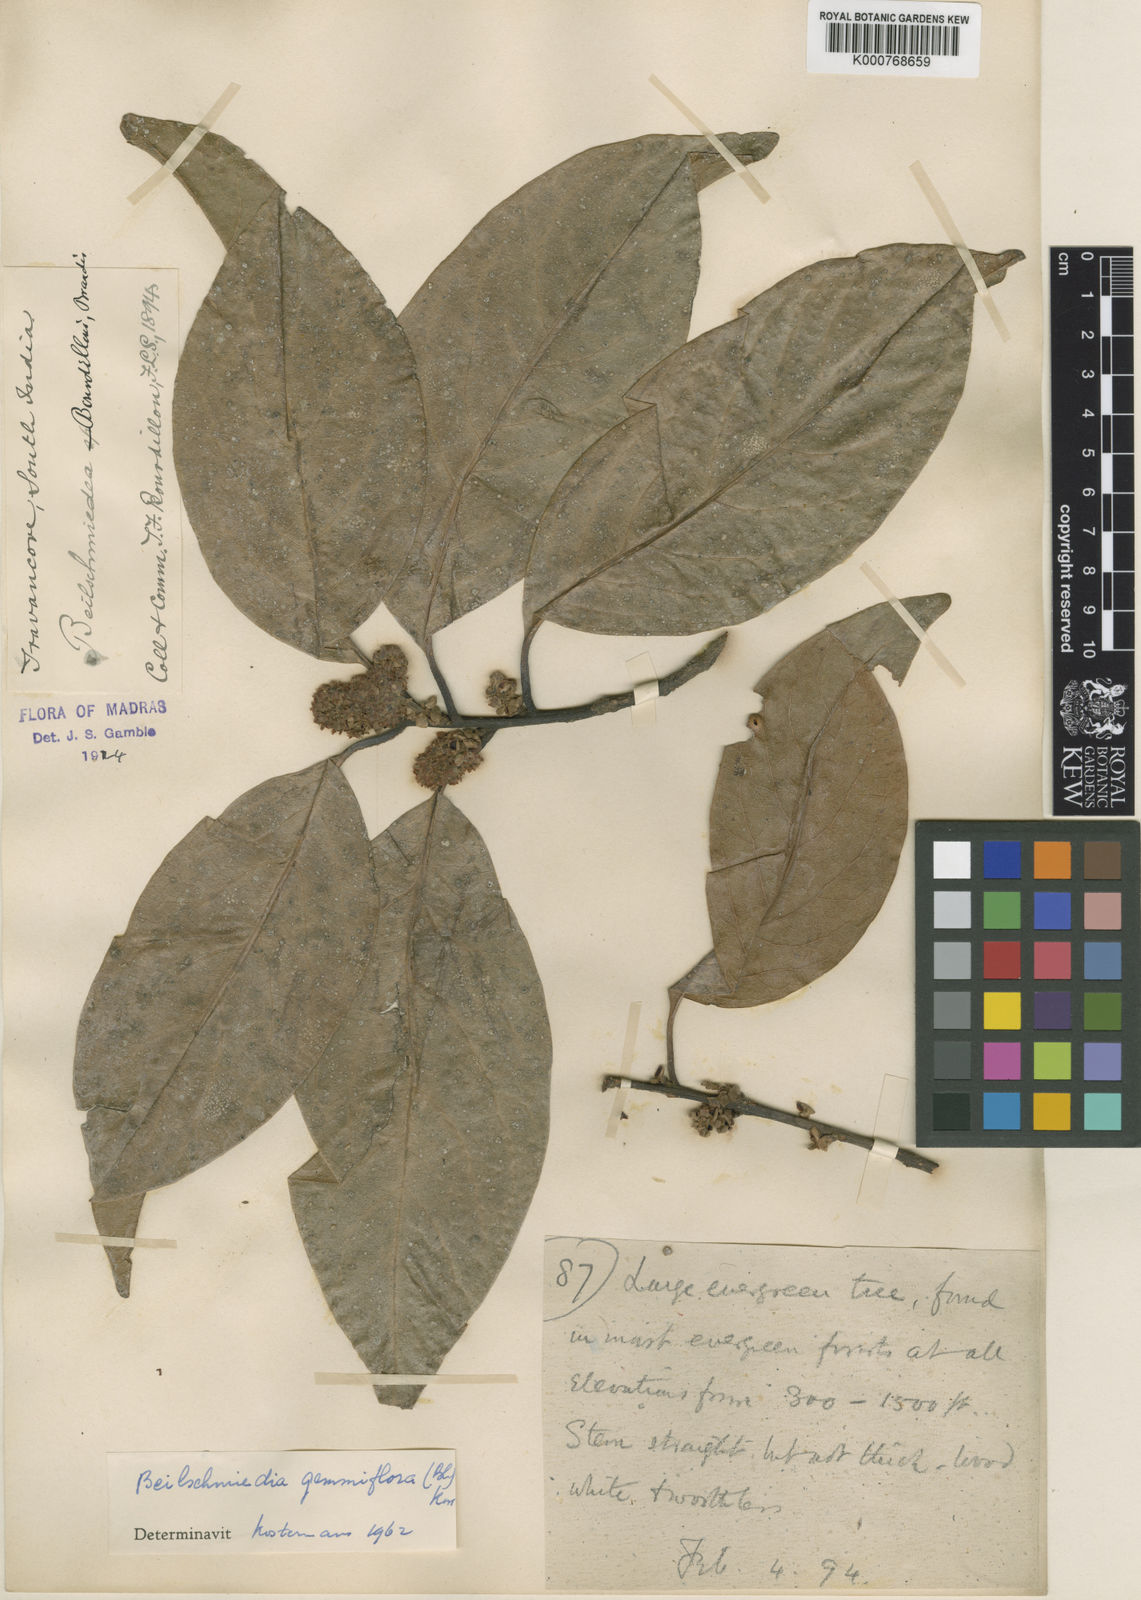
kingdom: Plantae
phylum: Tracheophyta
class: Magnoliopsida
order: Laurales
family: Lauraceae
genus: Beilschmiedia
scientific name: Beilschmiedia bourdillonii
